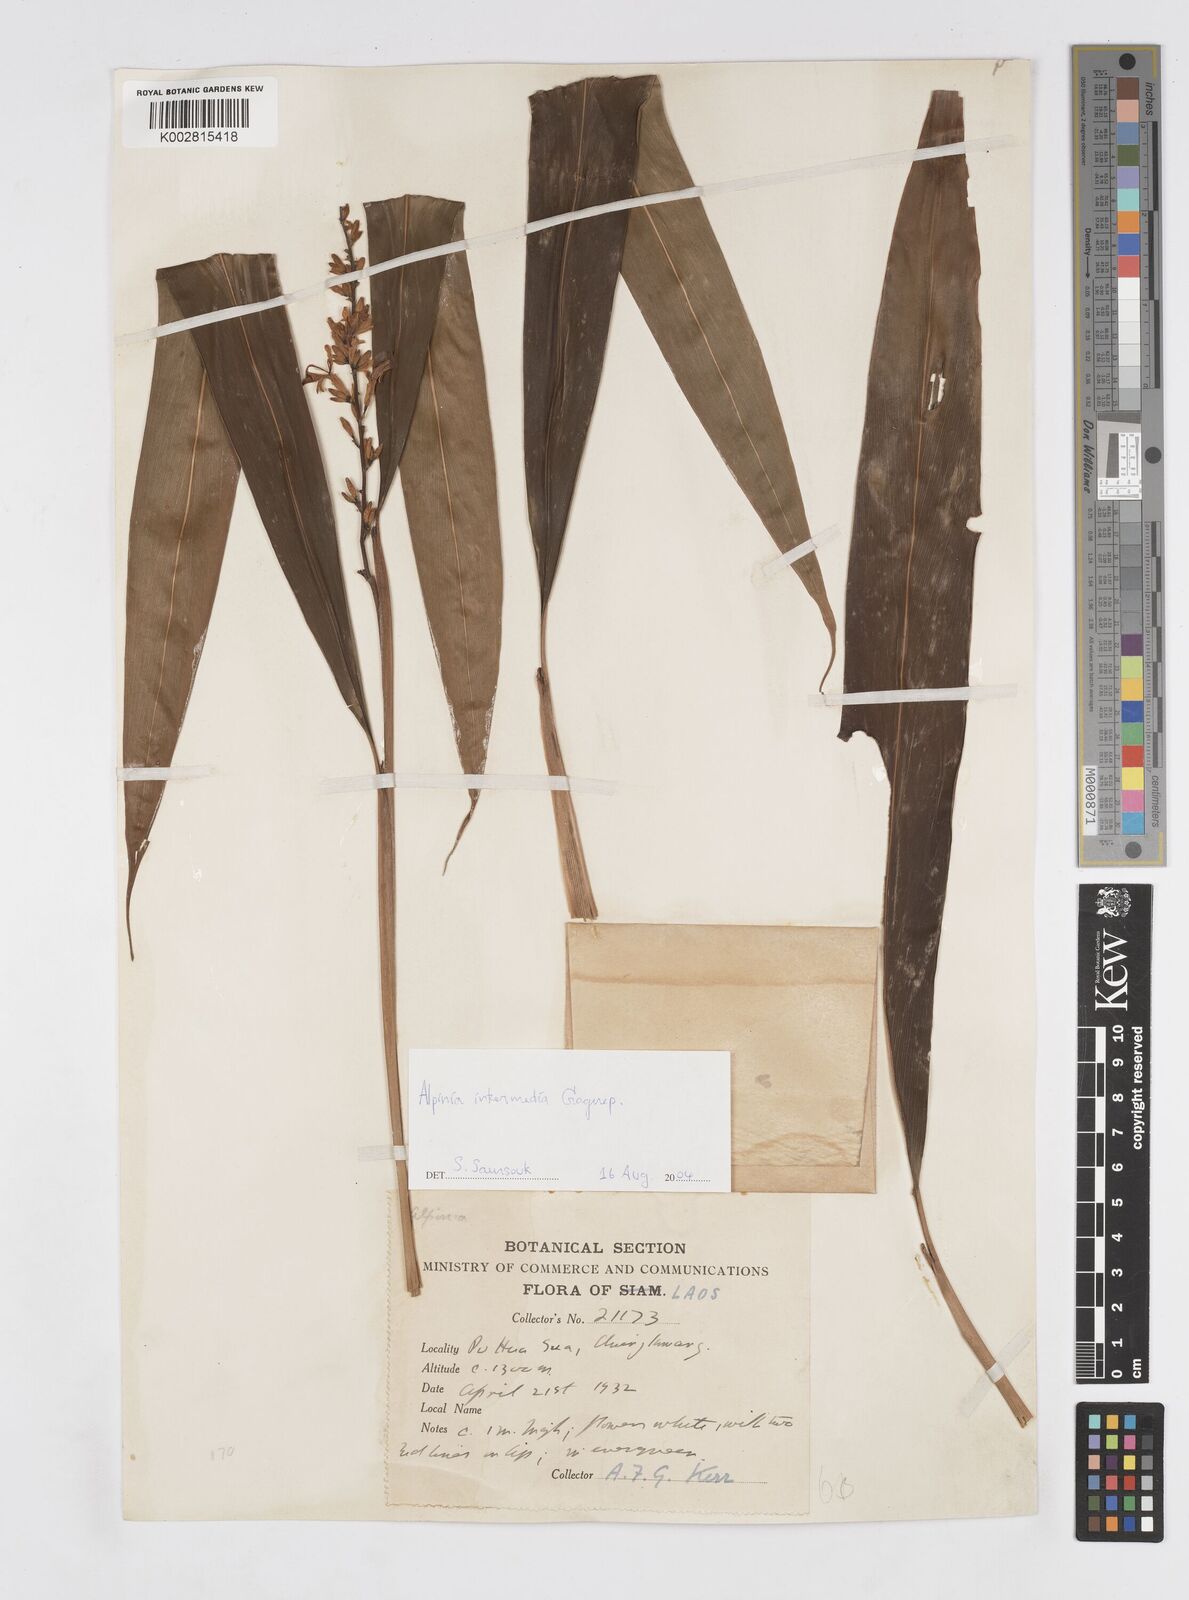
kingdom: Plantae
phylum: Tracheophyta
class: Liliopsida
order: Zingiberales
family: Zingiberaceae
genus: Alpinia
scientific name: Alpinia intermedia
